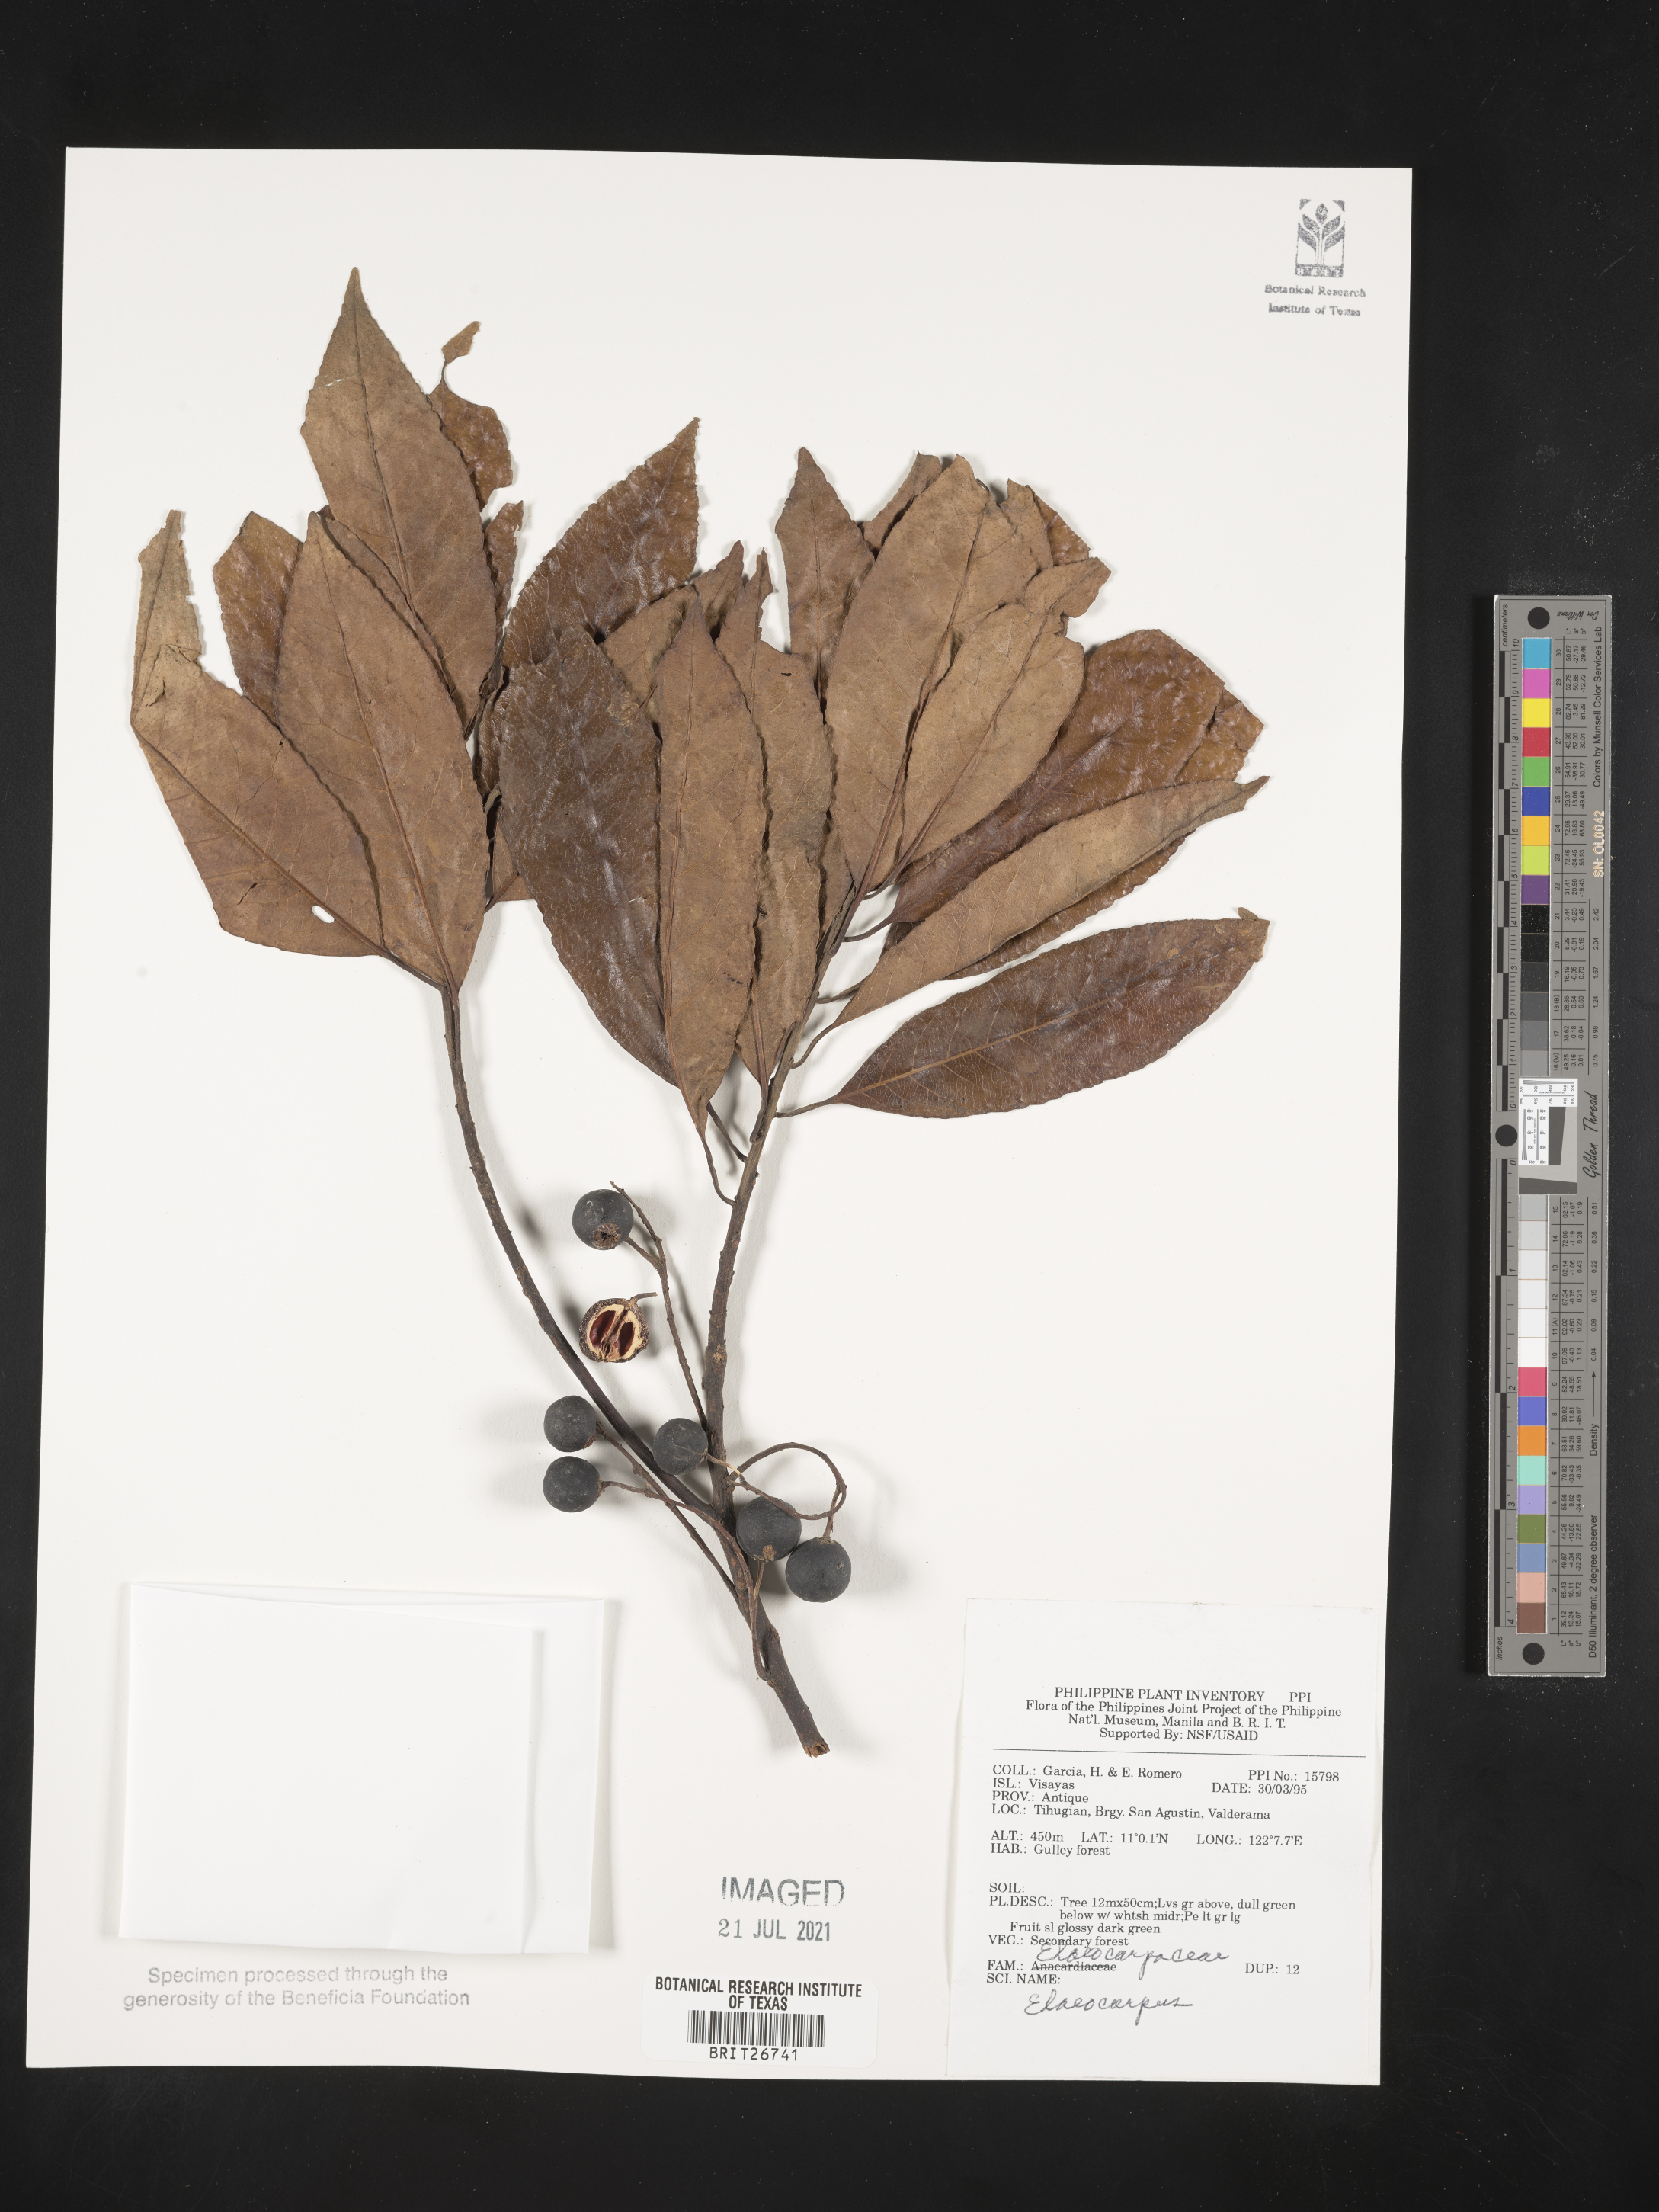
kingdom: Plantae
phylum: Tracheophyta
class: Magnoliopsida
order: Oxalidales
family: Elaeocarpaceae
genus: Elaeocarpus
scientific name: Elaeocarpus
